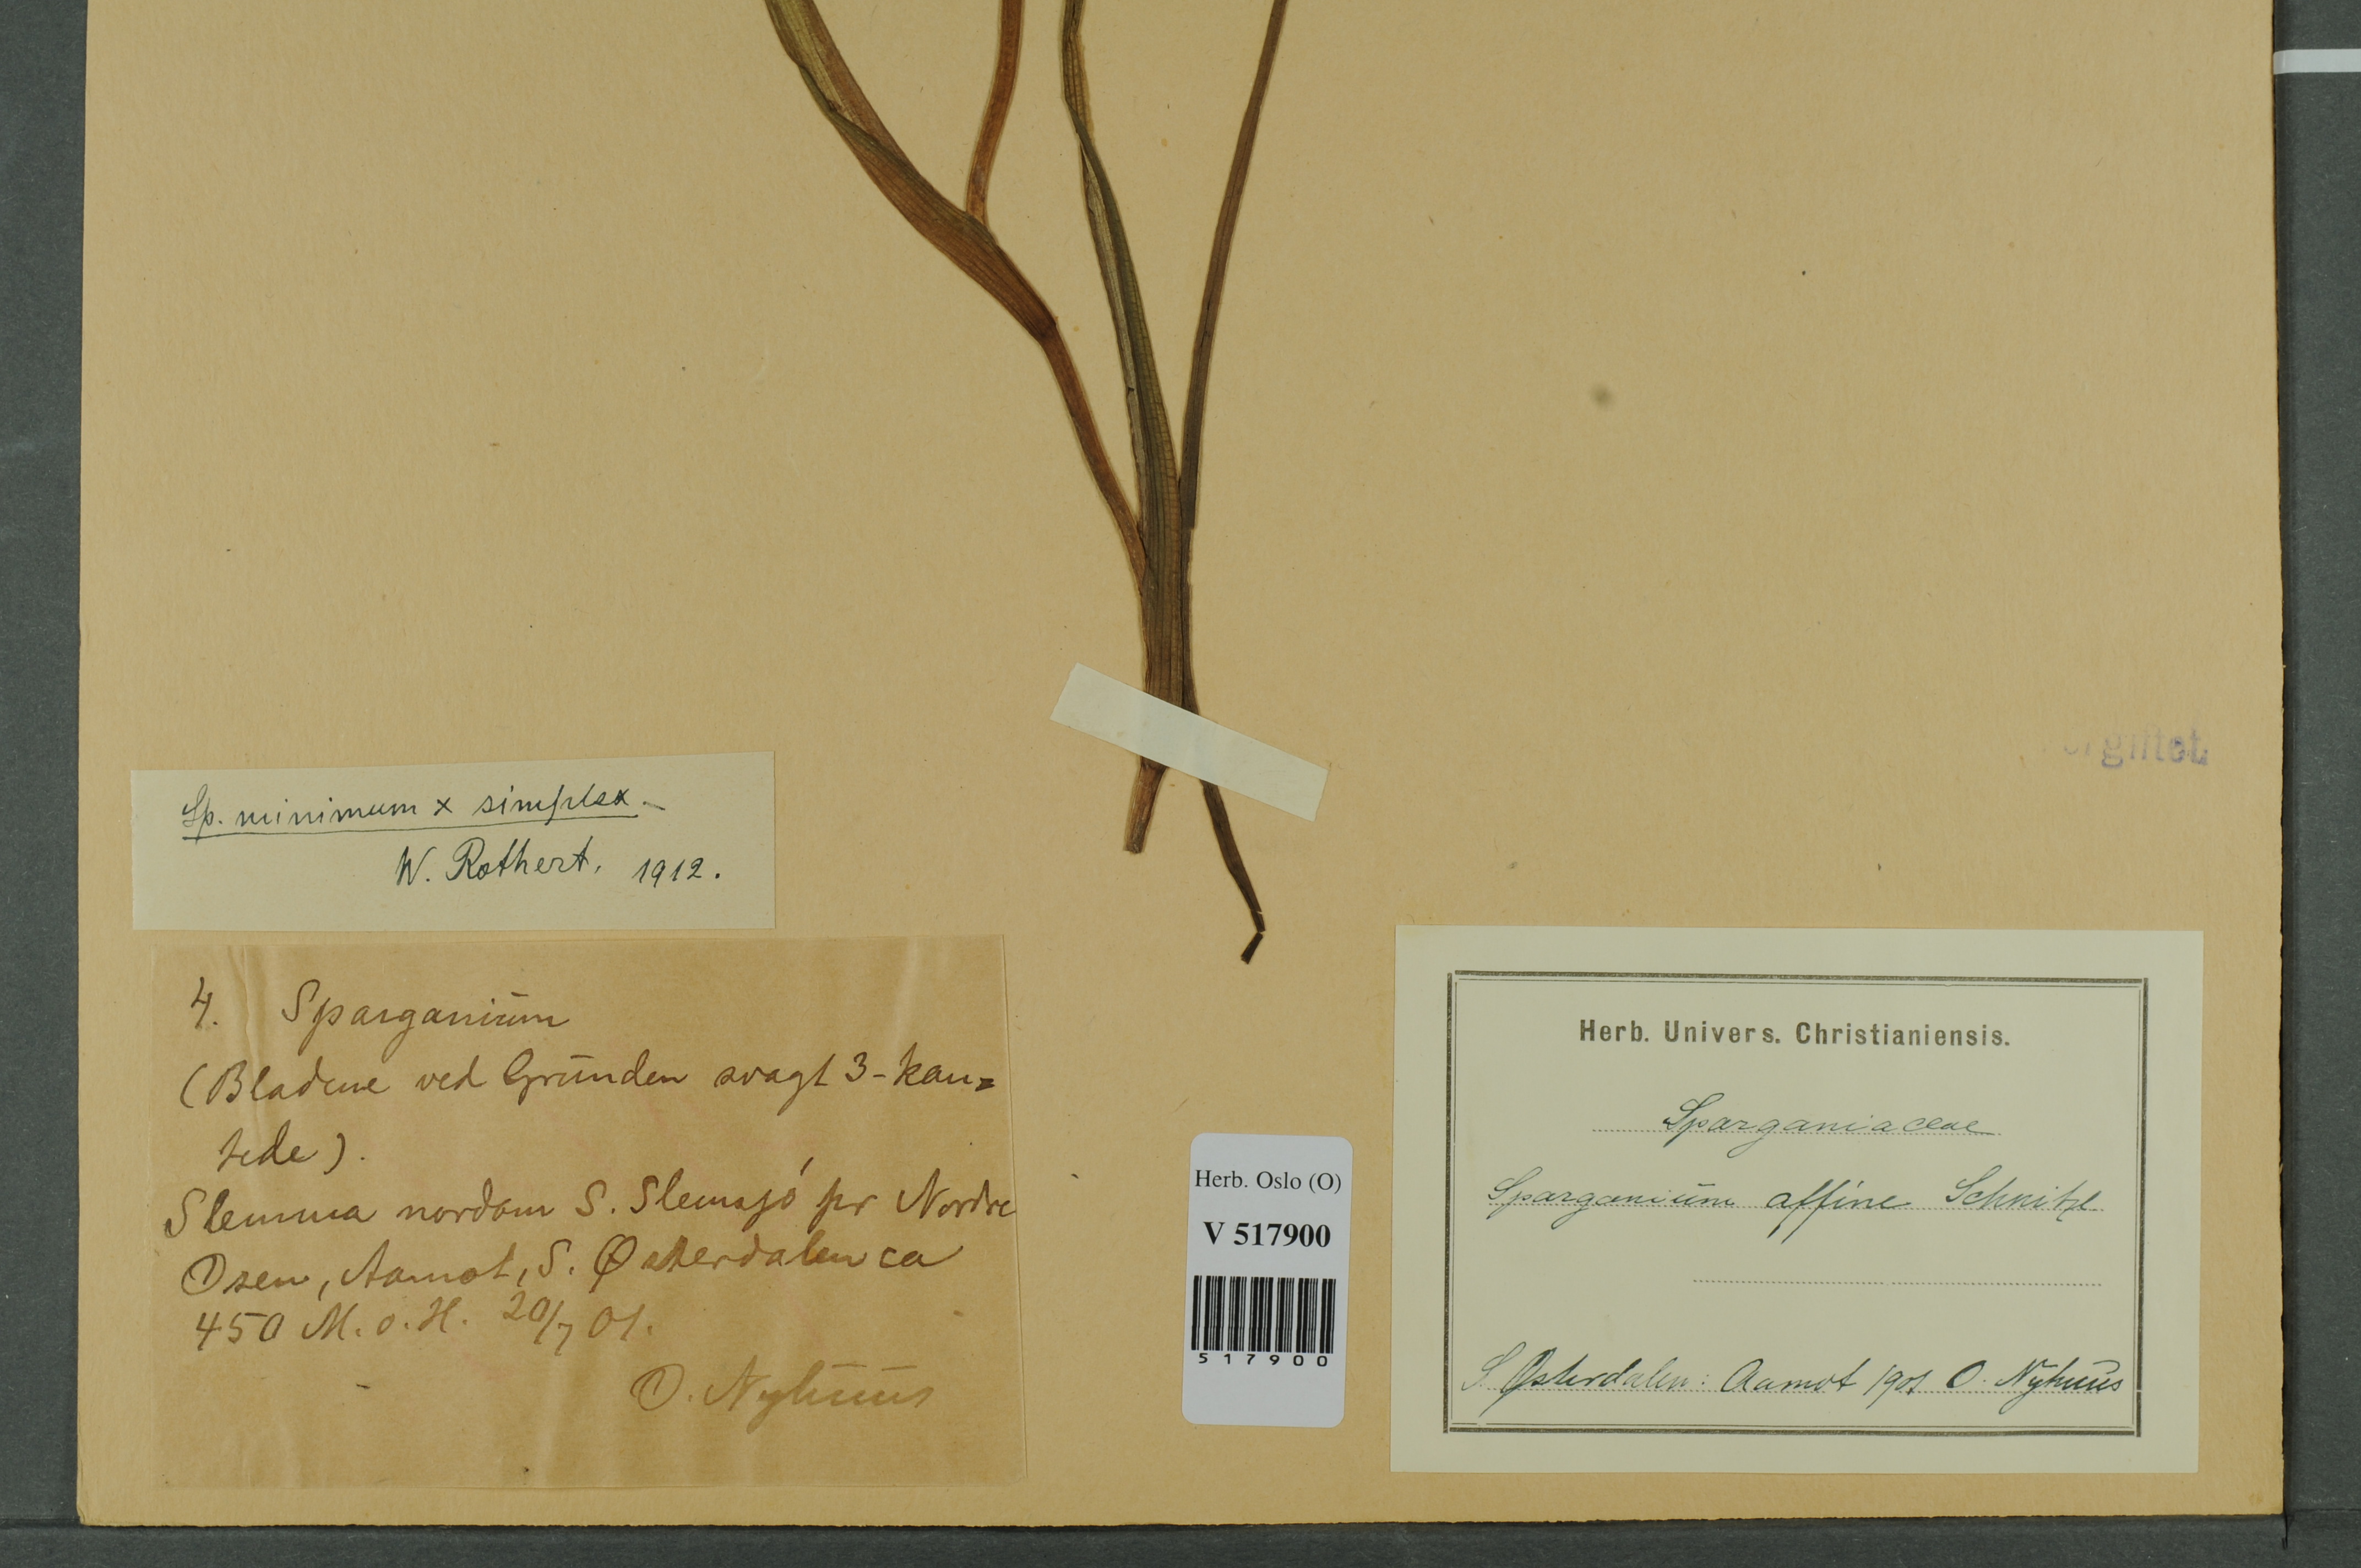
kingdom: Plantae
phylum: Tracheophyta
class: Liliopsida
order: Poales
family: Typhaceae
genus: Sparganium
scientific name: Sparganium
